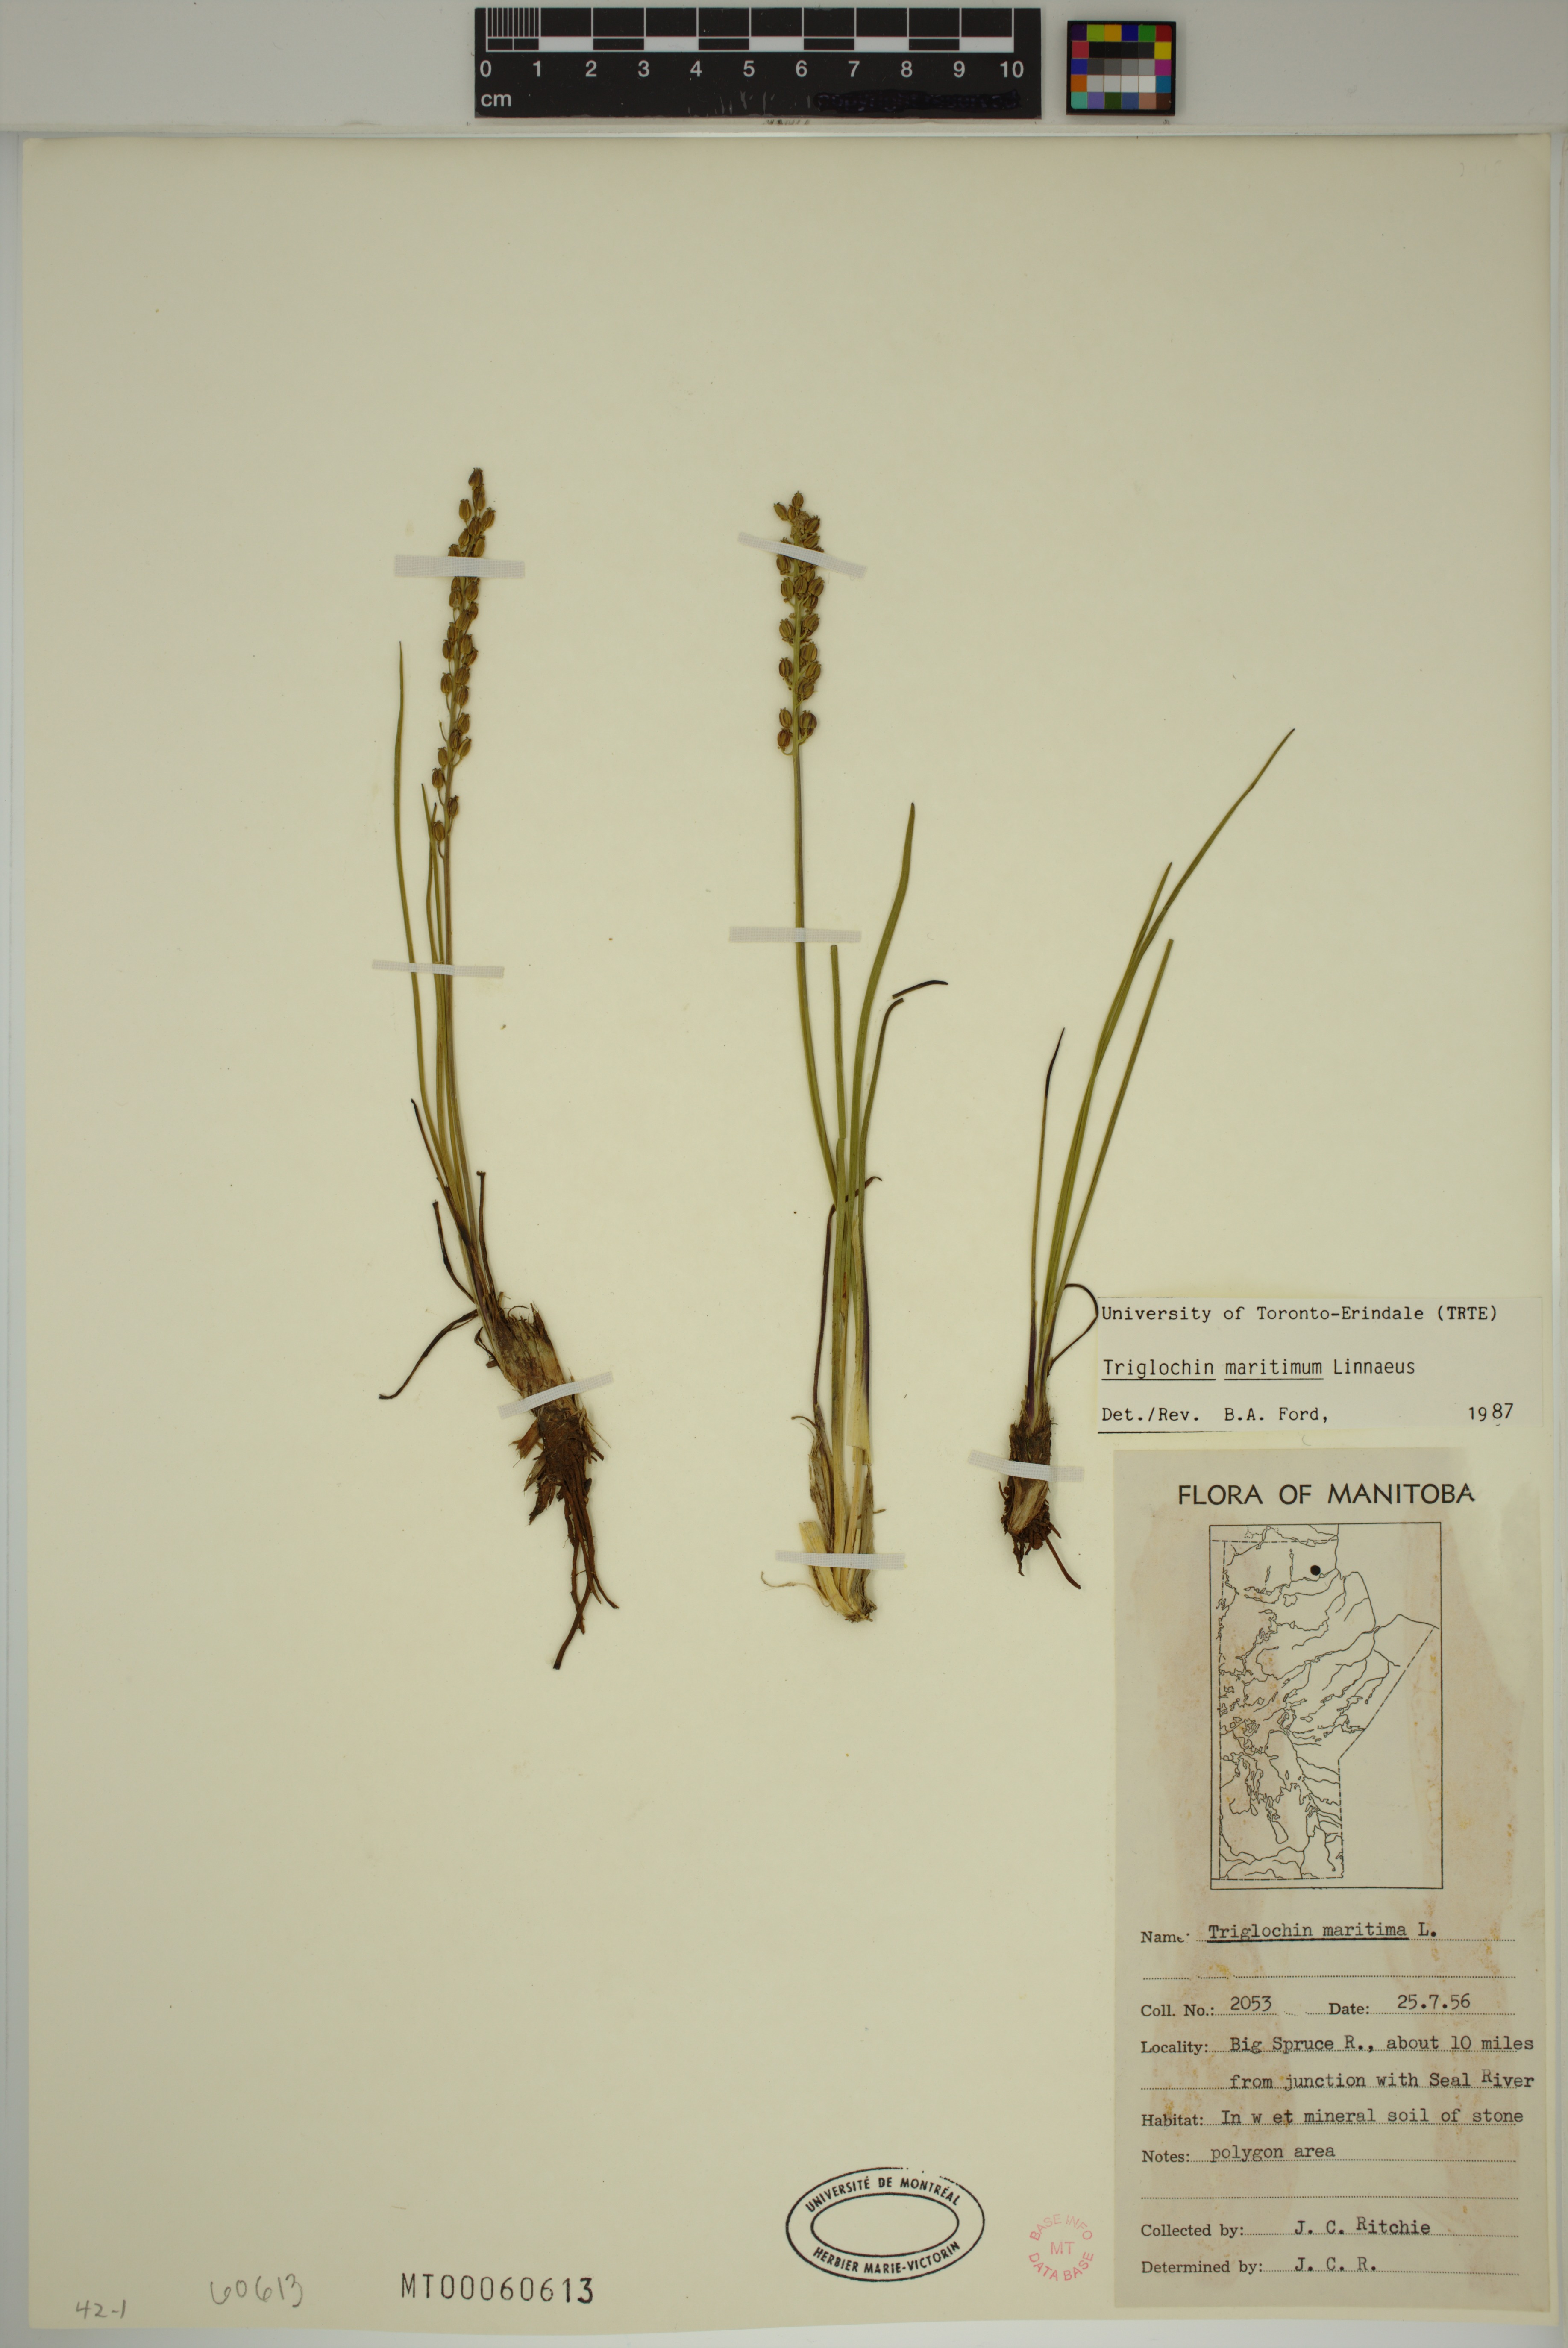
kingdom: Plantae
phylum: Tracheophyta
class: Liliopsida
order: Alismatales
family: Juncaginaceae
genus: Triglochin
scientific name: Triglochin maritima
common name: Sea arrowgrass
